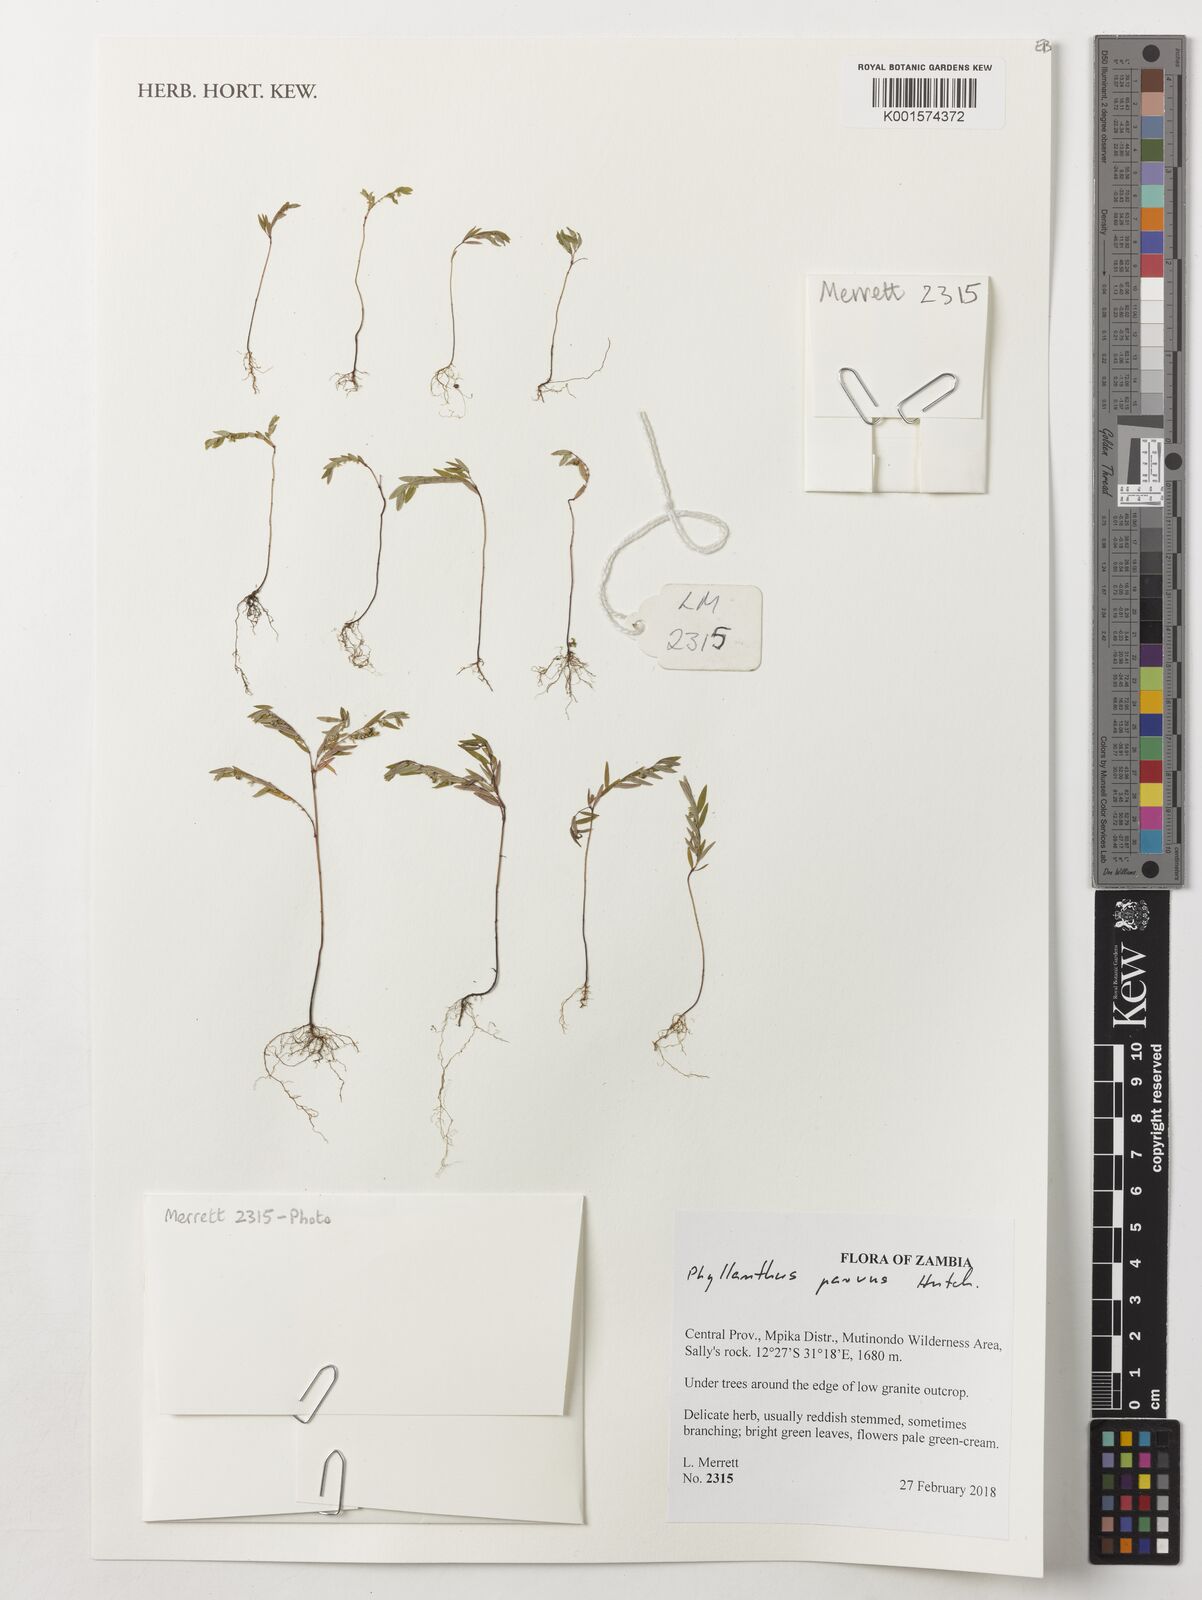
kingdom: Plantae
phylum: Tracheophyta
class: Magnoliopsida
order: Malpighiales
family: Phyllanthaceae
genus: Phyllanthus
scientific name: Phyllanthus parvus
